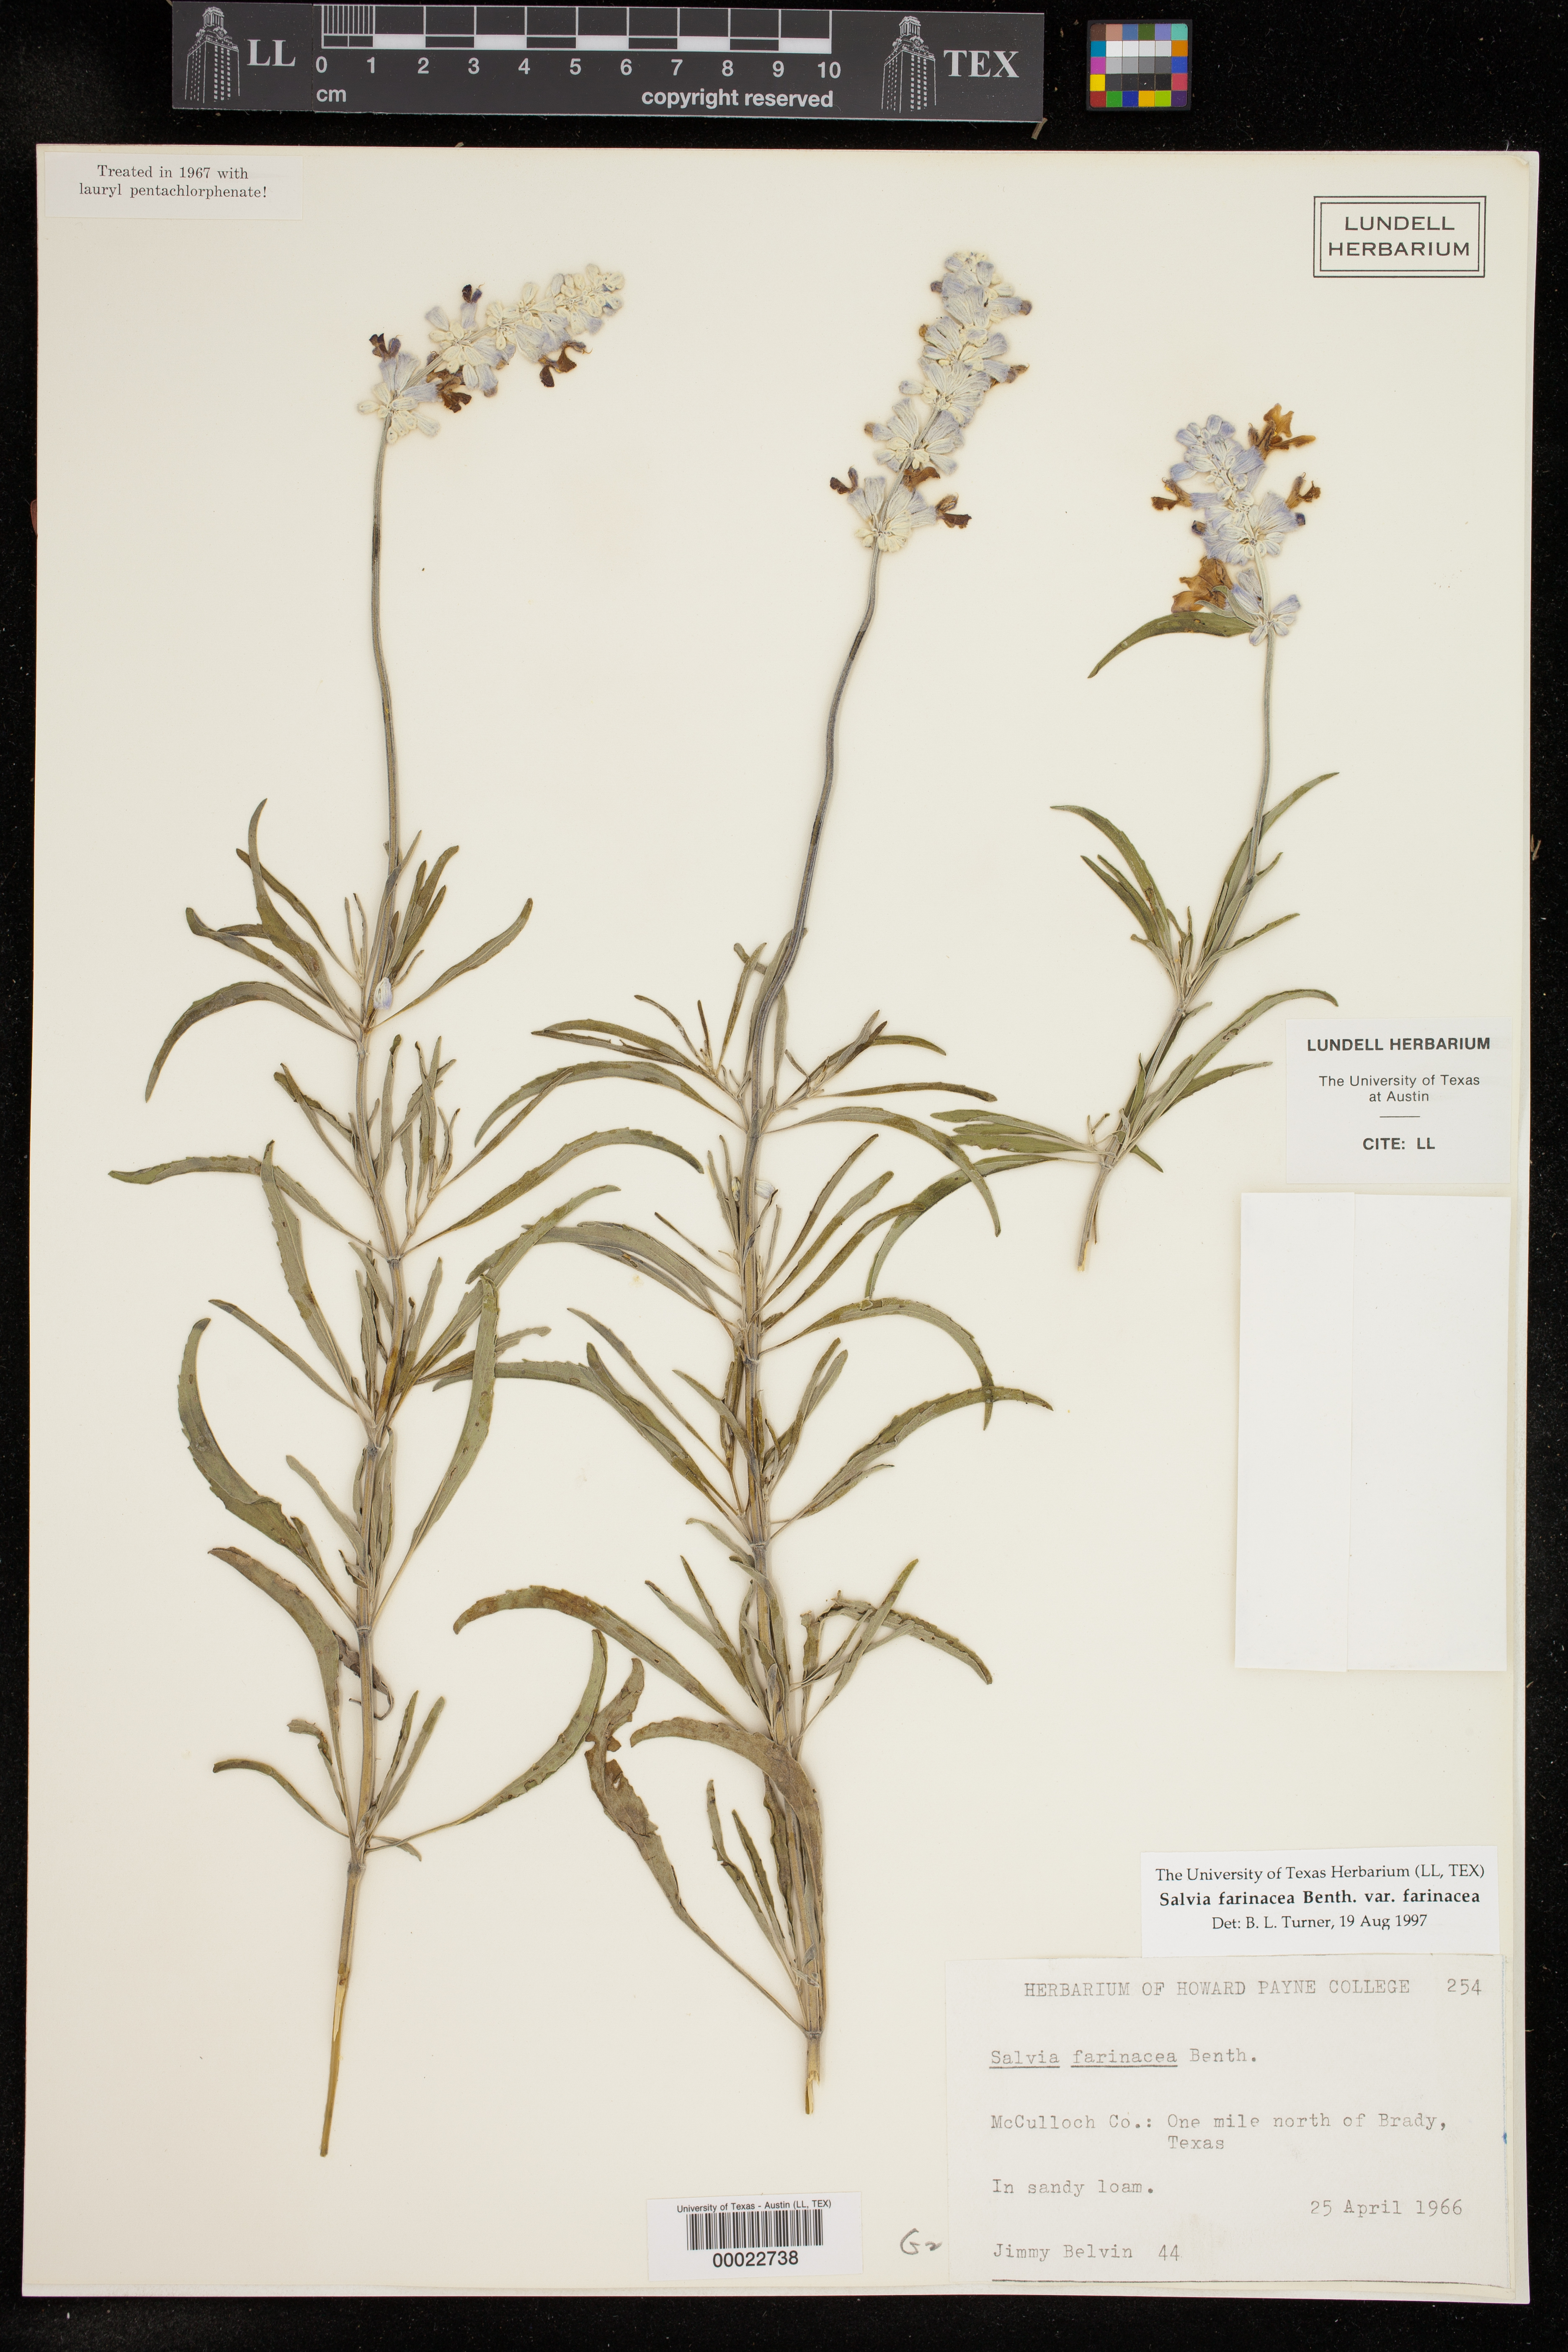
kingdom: Plantae
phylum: Tracheophyta
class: Magnoliopsida
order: Lamiales
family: Lamiaceae
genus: Salvia
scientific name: Salvia farinacea
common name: Mealy sage
